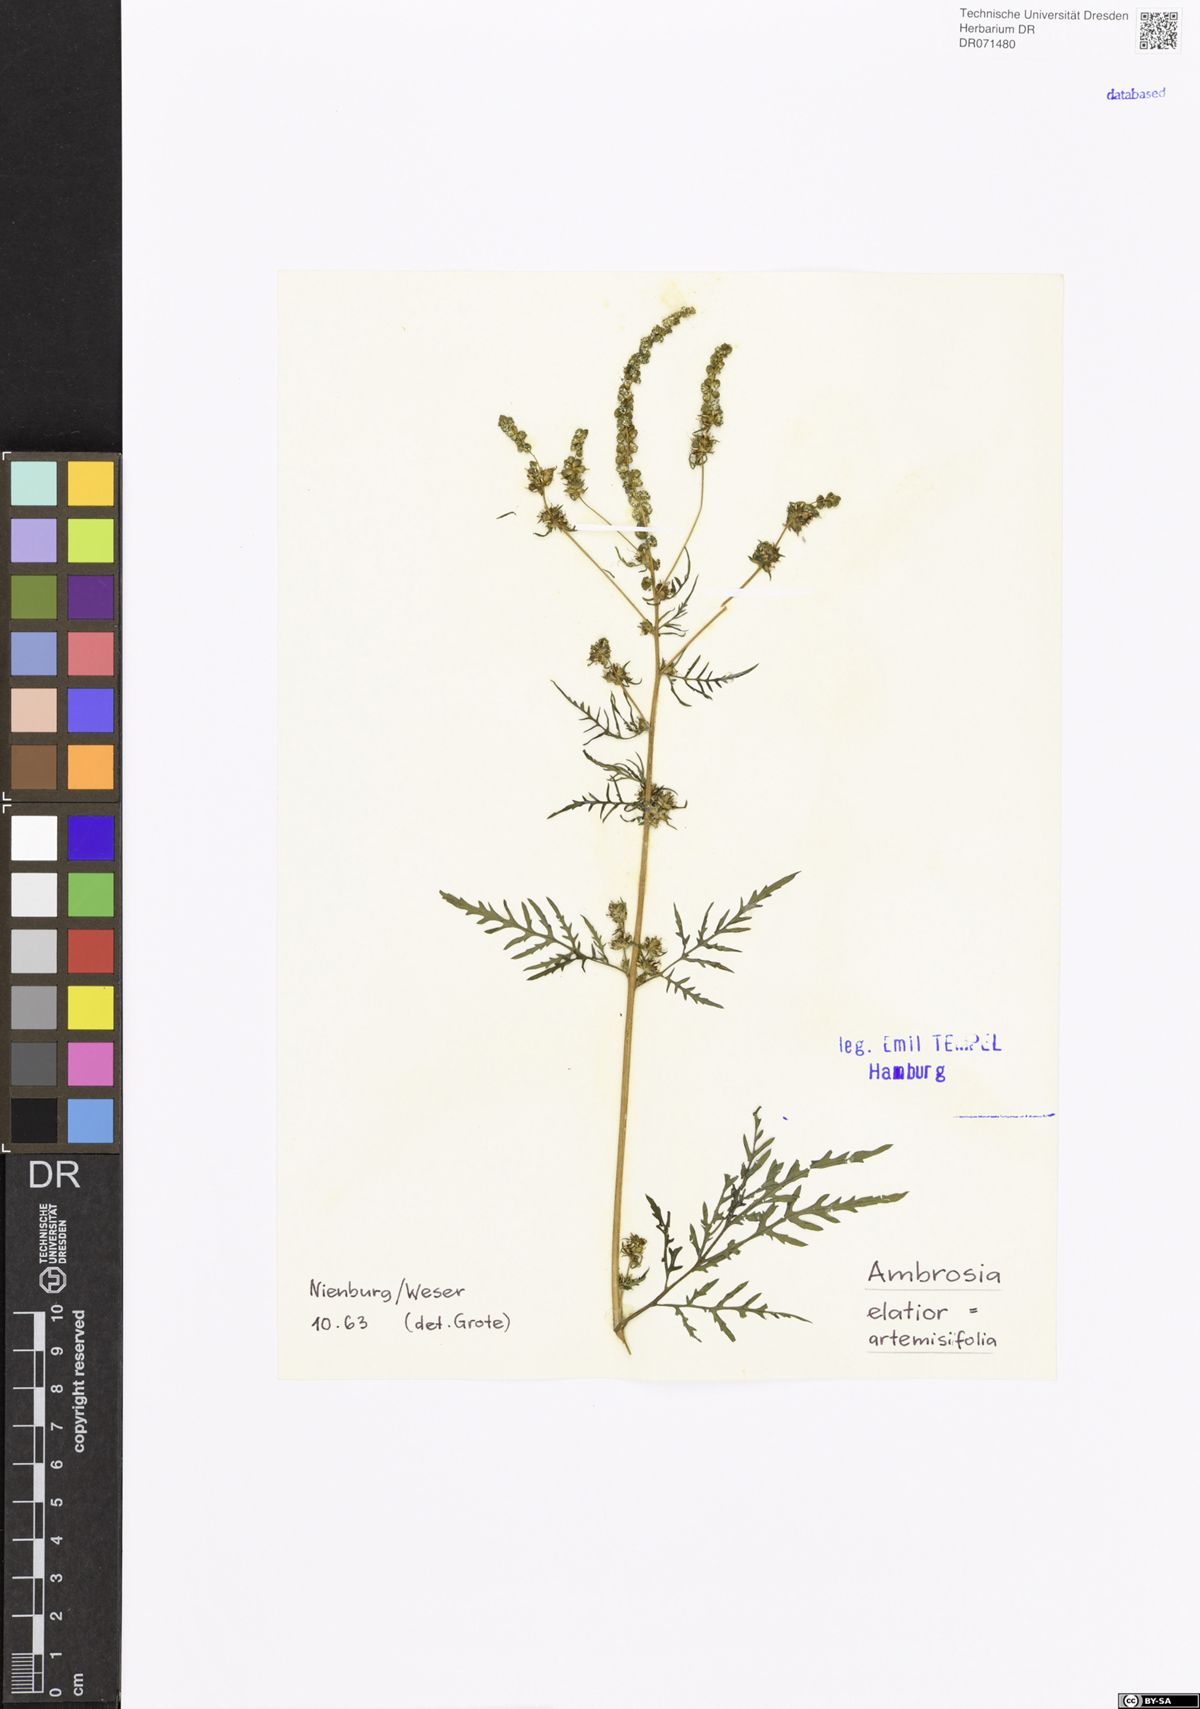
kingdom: Plantae
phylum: Tracheophyta
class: Magnoliopsida
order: Asterales
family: Asteraceae
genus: Ambrosia
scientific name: Ambrosia artemisiifolia
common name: Annual ragweed
